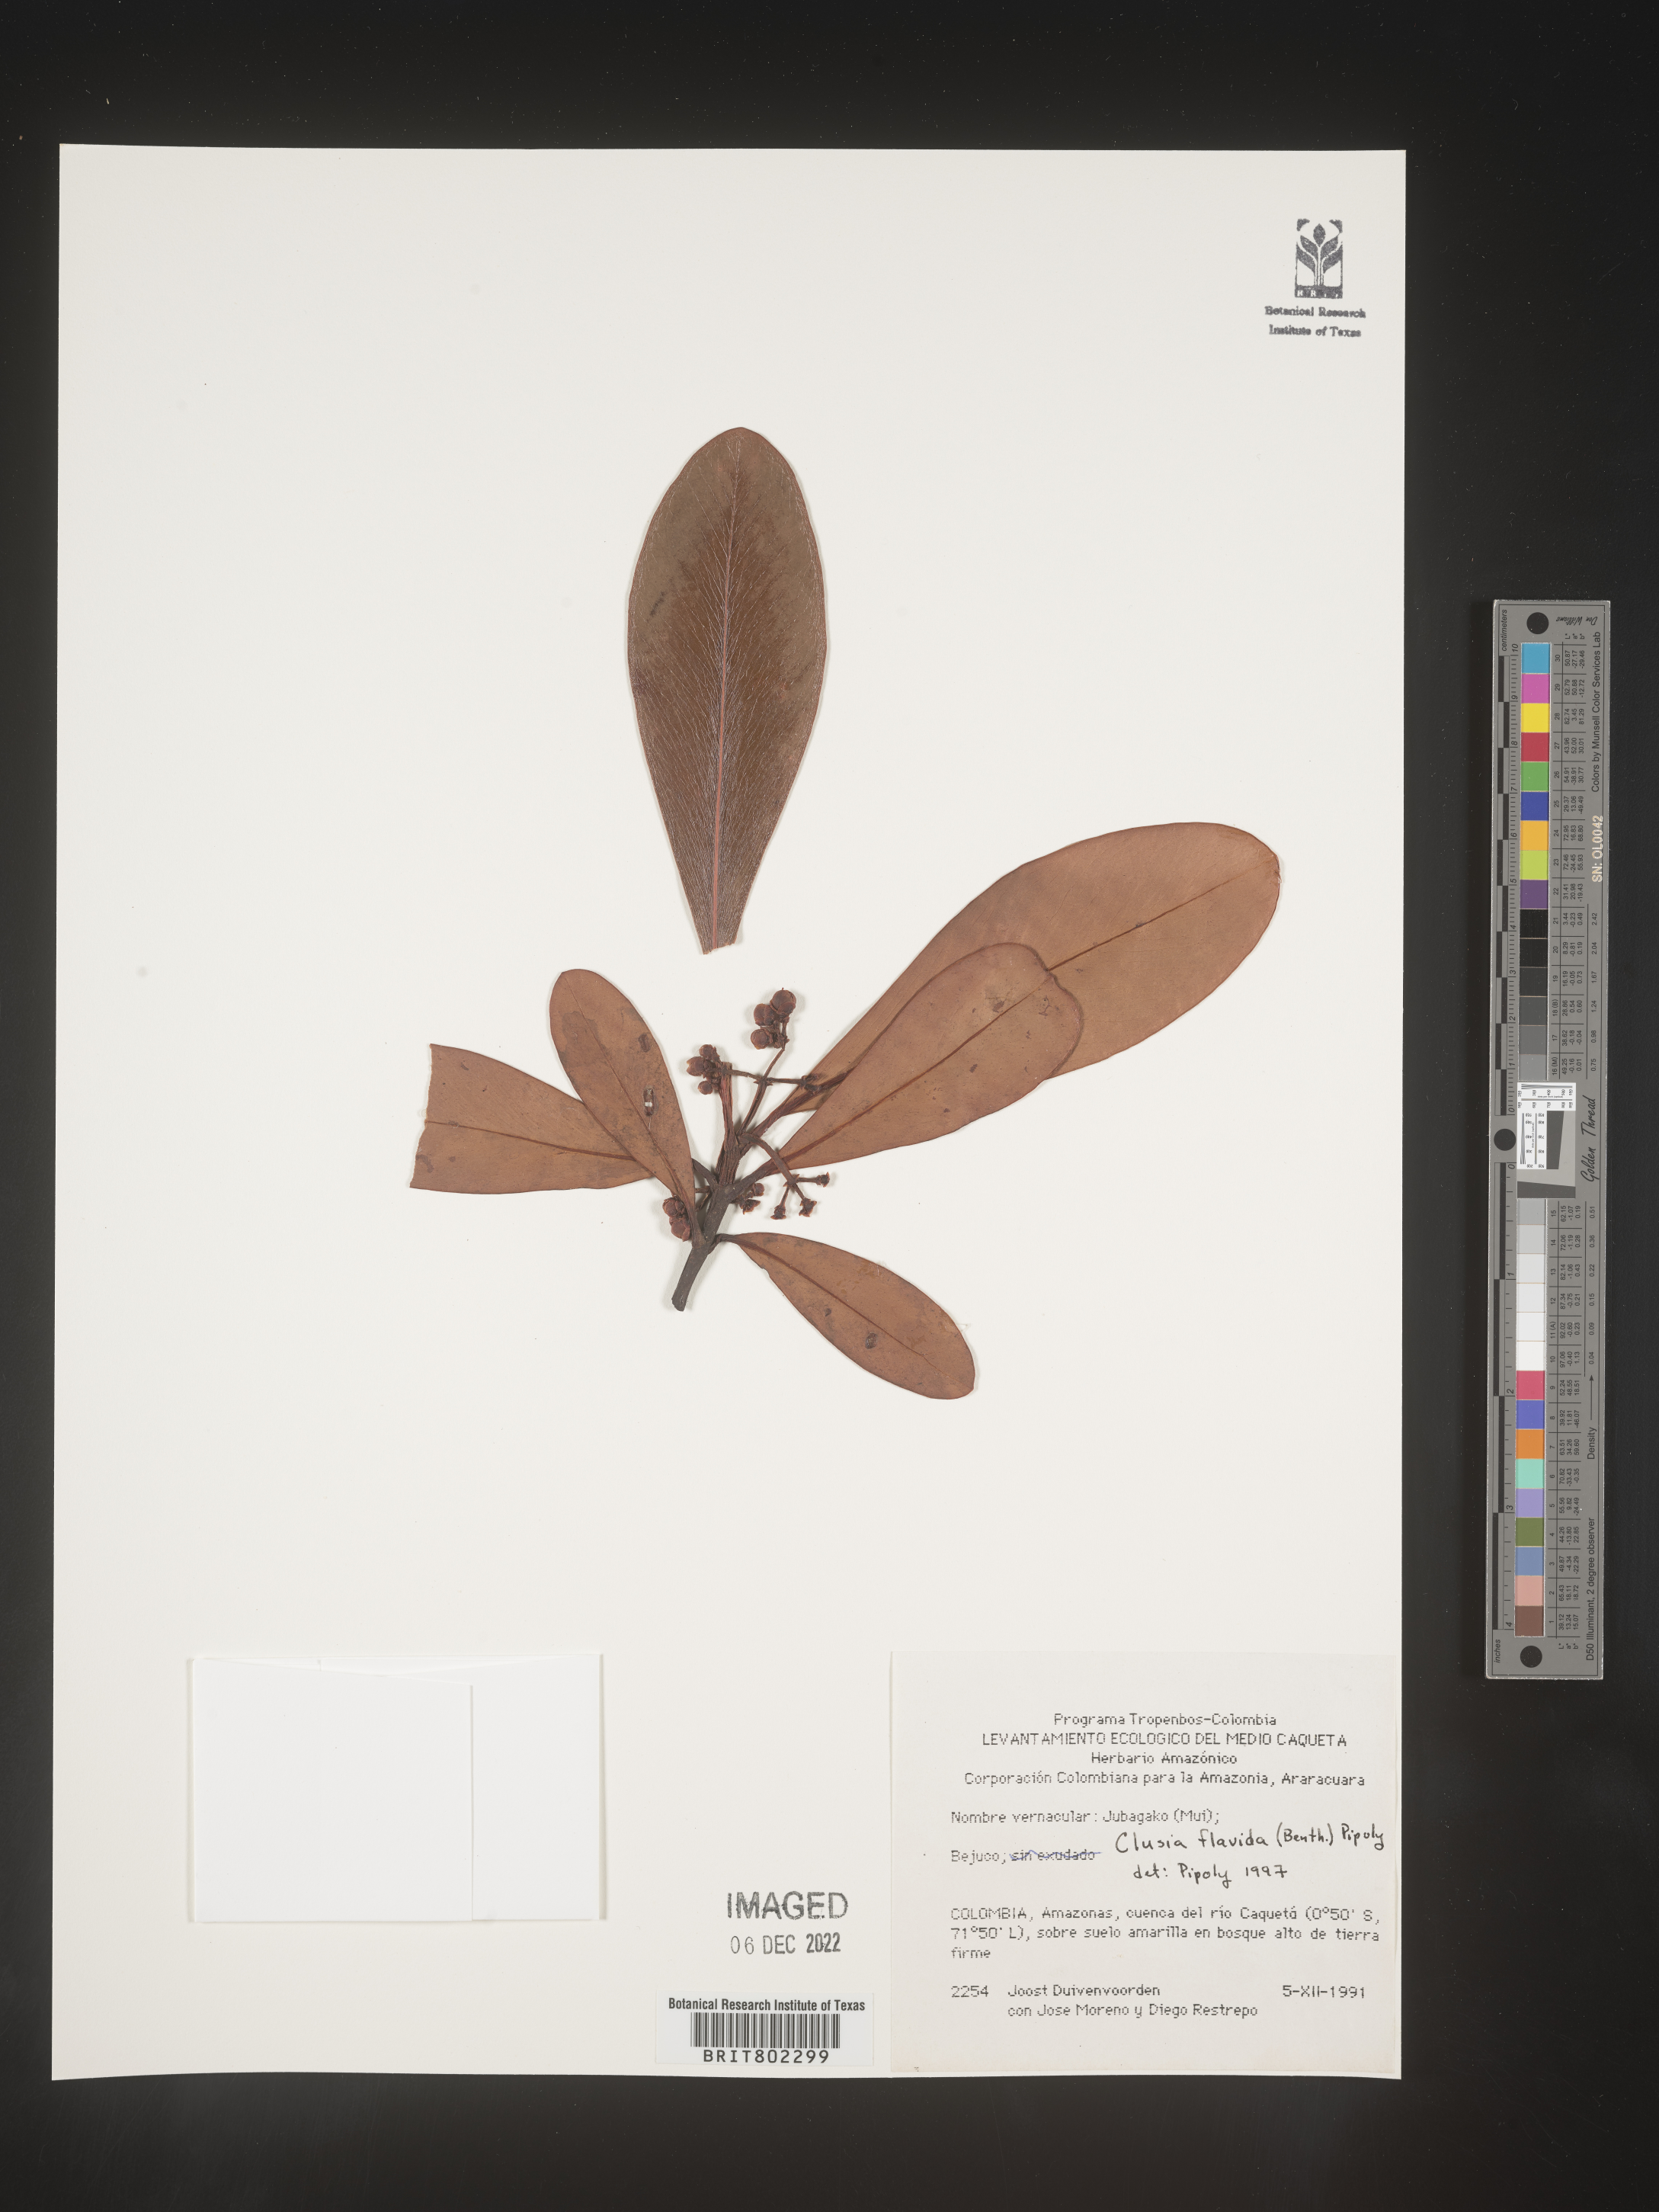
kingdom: Plantae
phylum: Tracheophyta
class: Magnoliopsida
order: Malpighiales
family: Clusiaceae
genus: Clusia
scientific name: Clusia flavida
